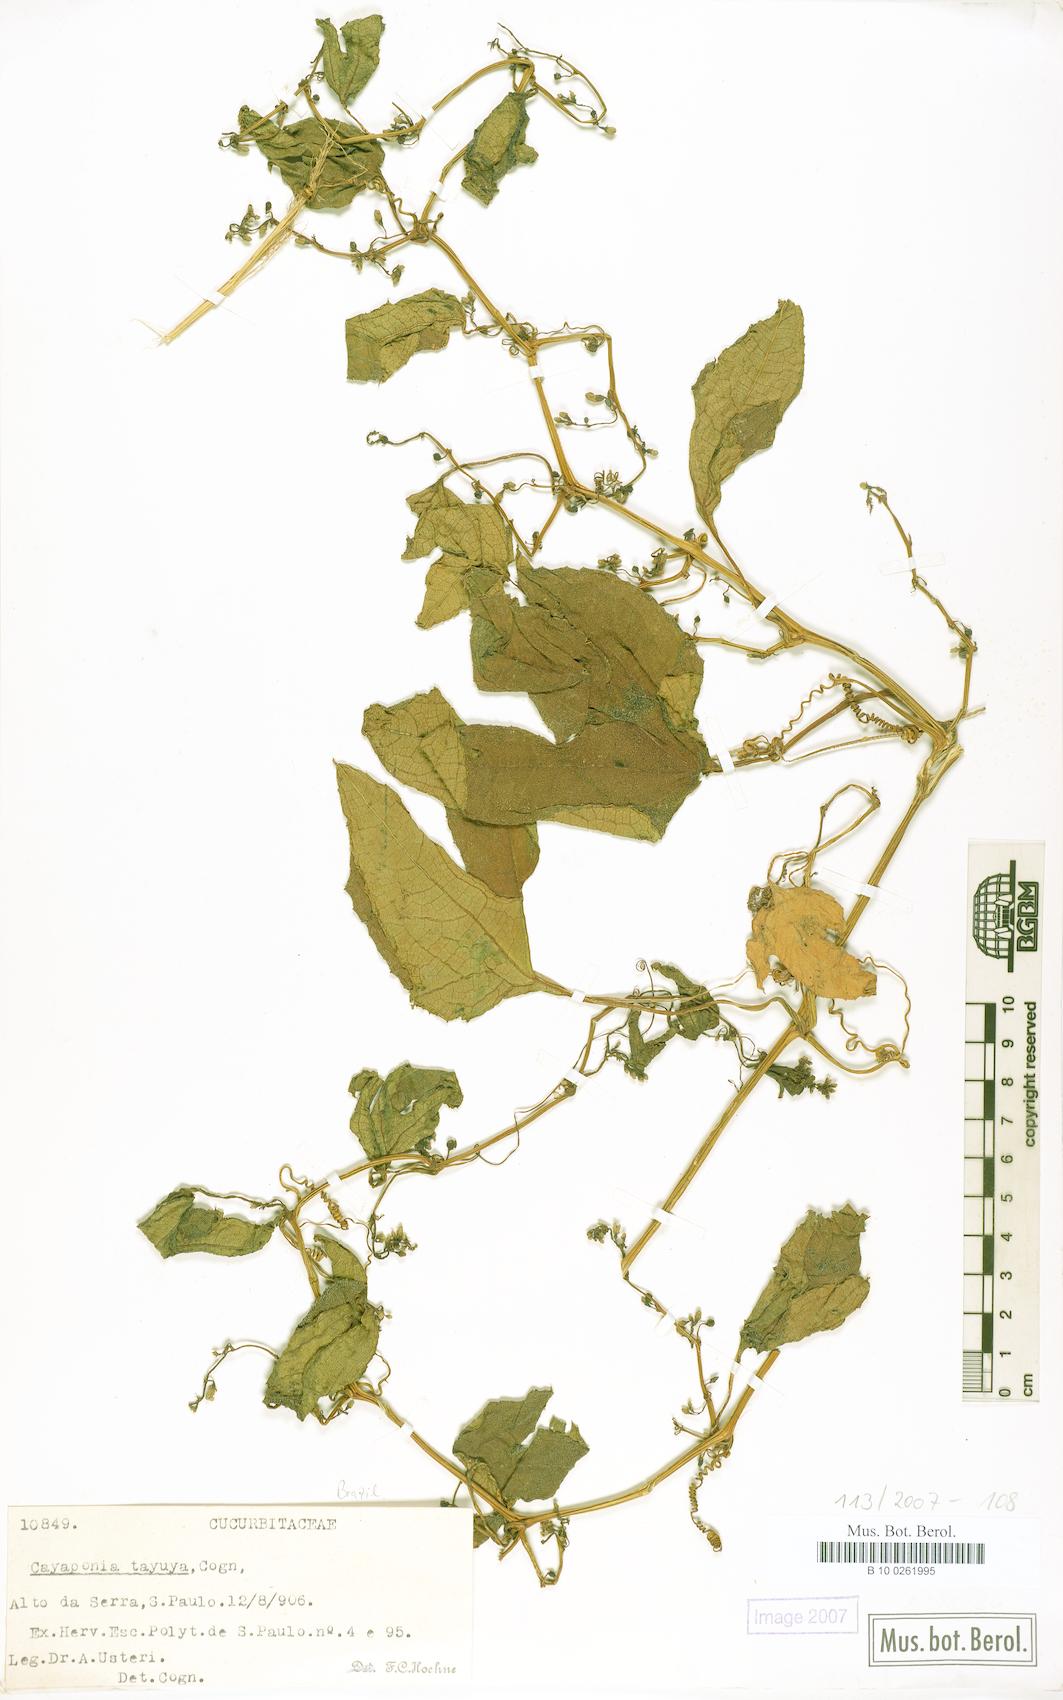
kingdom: Plantae
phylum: Tracheophyta
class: Magnoliopsida
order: Cucurbitales
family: Cucurbitaceae
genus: Cayaponia
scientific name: Cayaponia martiana
